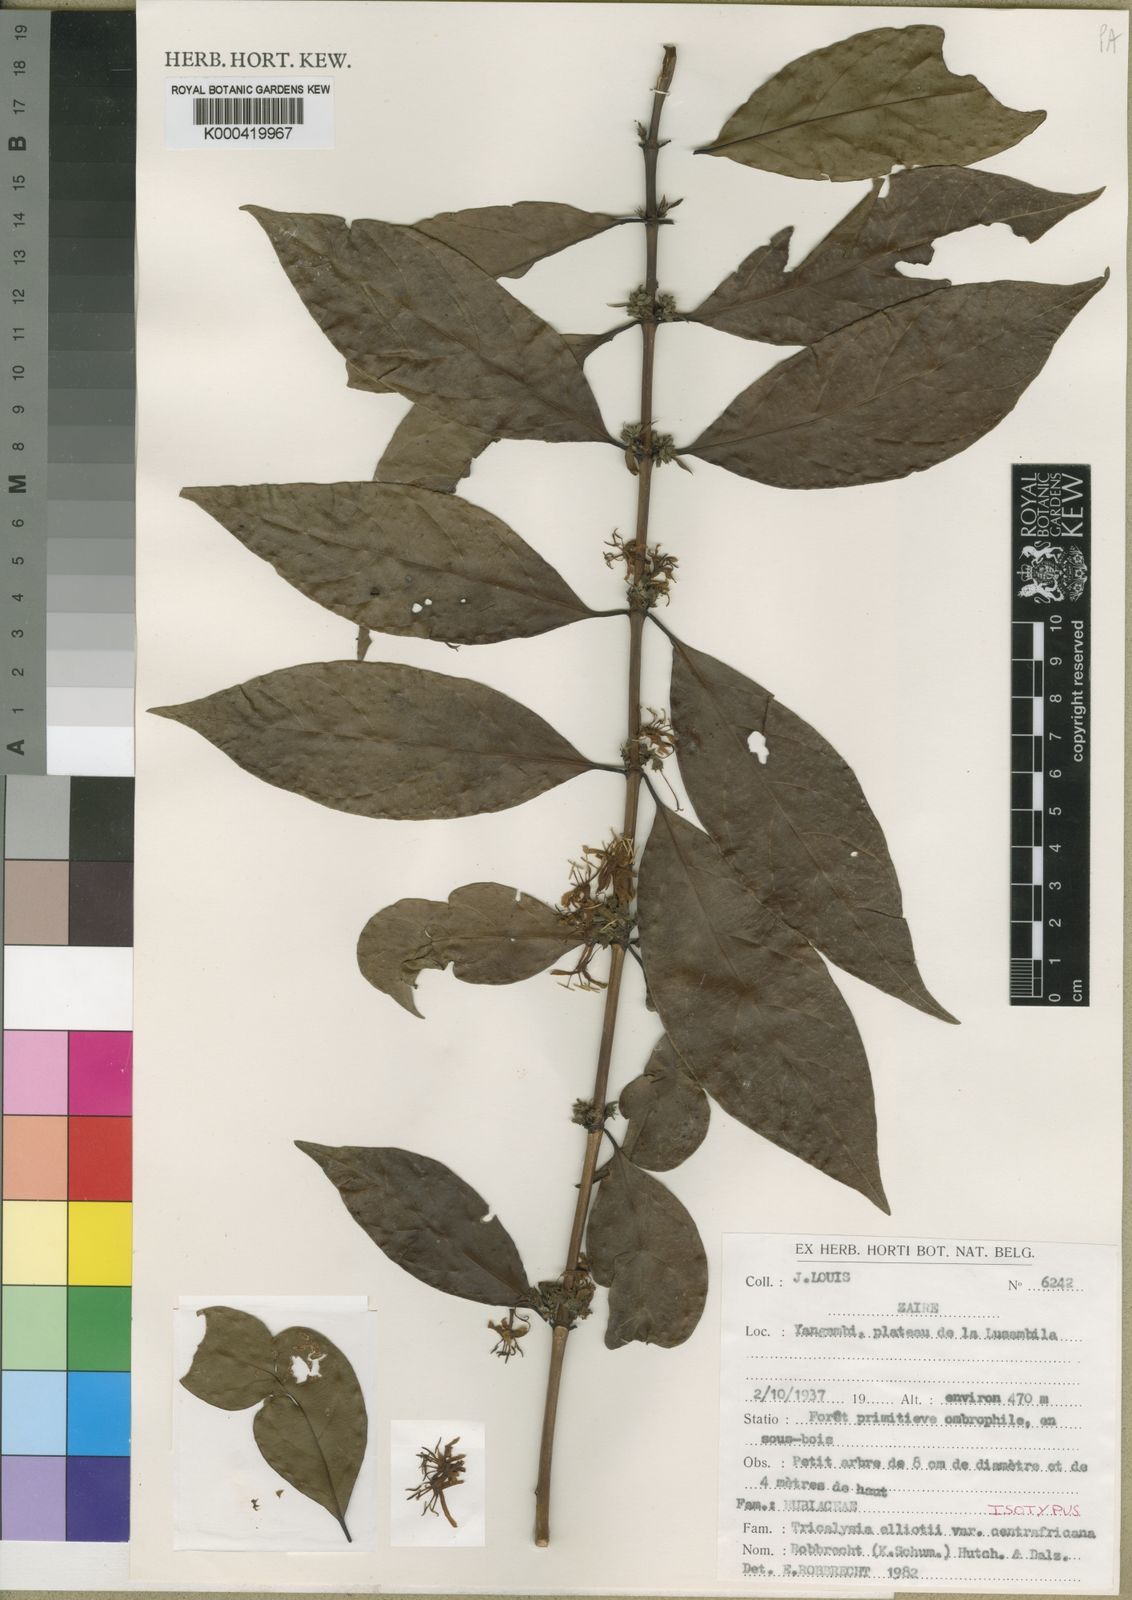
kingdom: Plantae
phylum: Tracheophyta
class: Magnoliopsida
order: Gentianales
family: Rubiaceae
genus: Tricalysia
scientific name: Tricalysia elliottii
